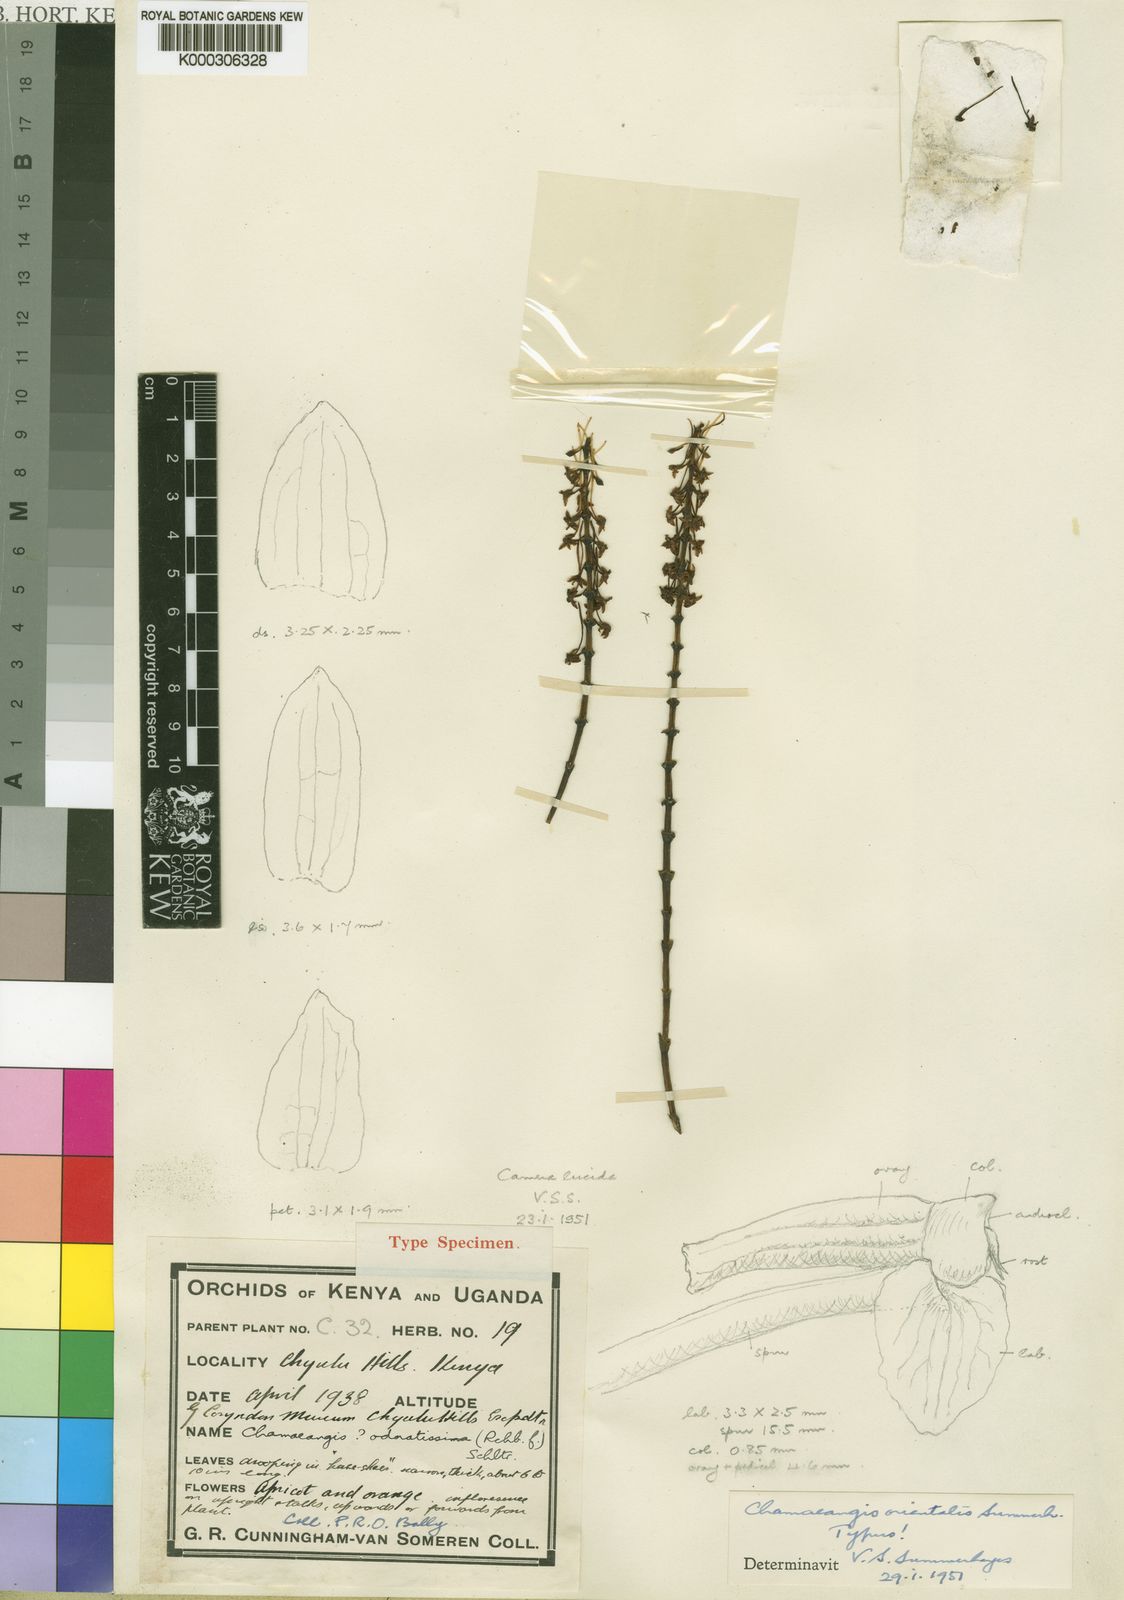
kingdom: Plantae
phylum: Tracheophyta
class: Liliopsida
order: Asparagales
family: Orchidaceae
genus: Diaphananthe
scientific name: Diaphananthe sarcophylla
